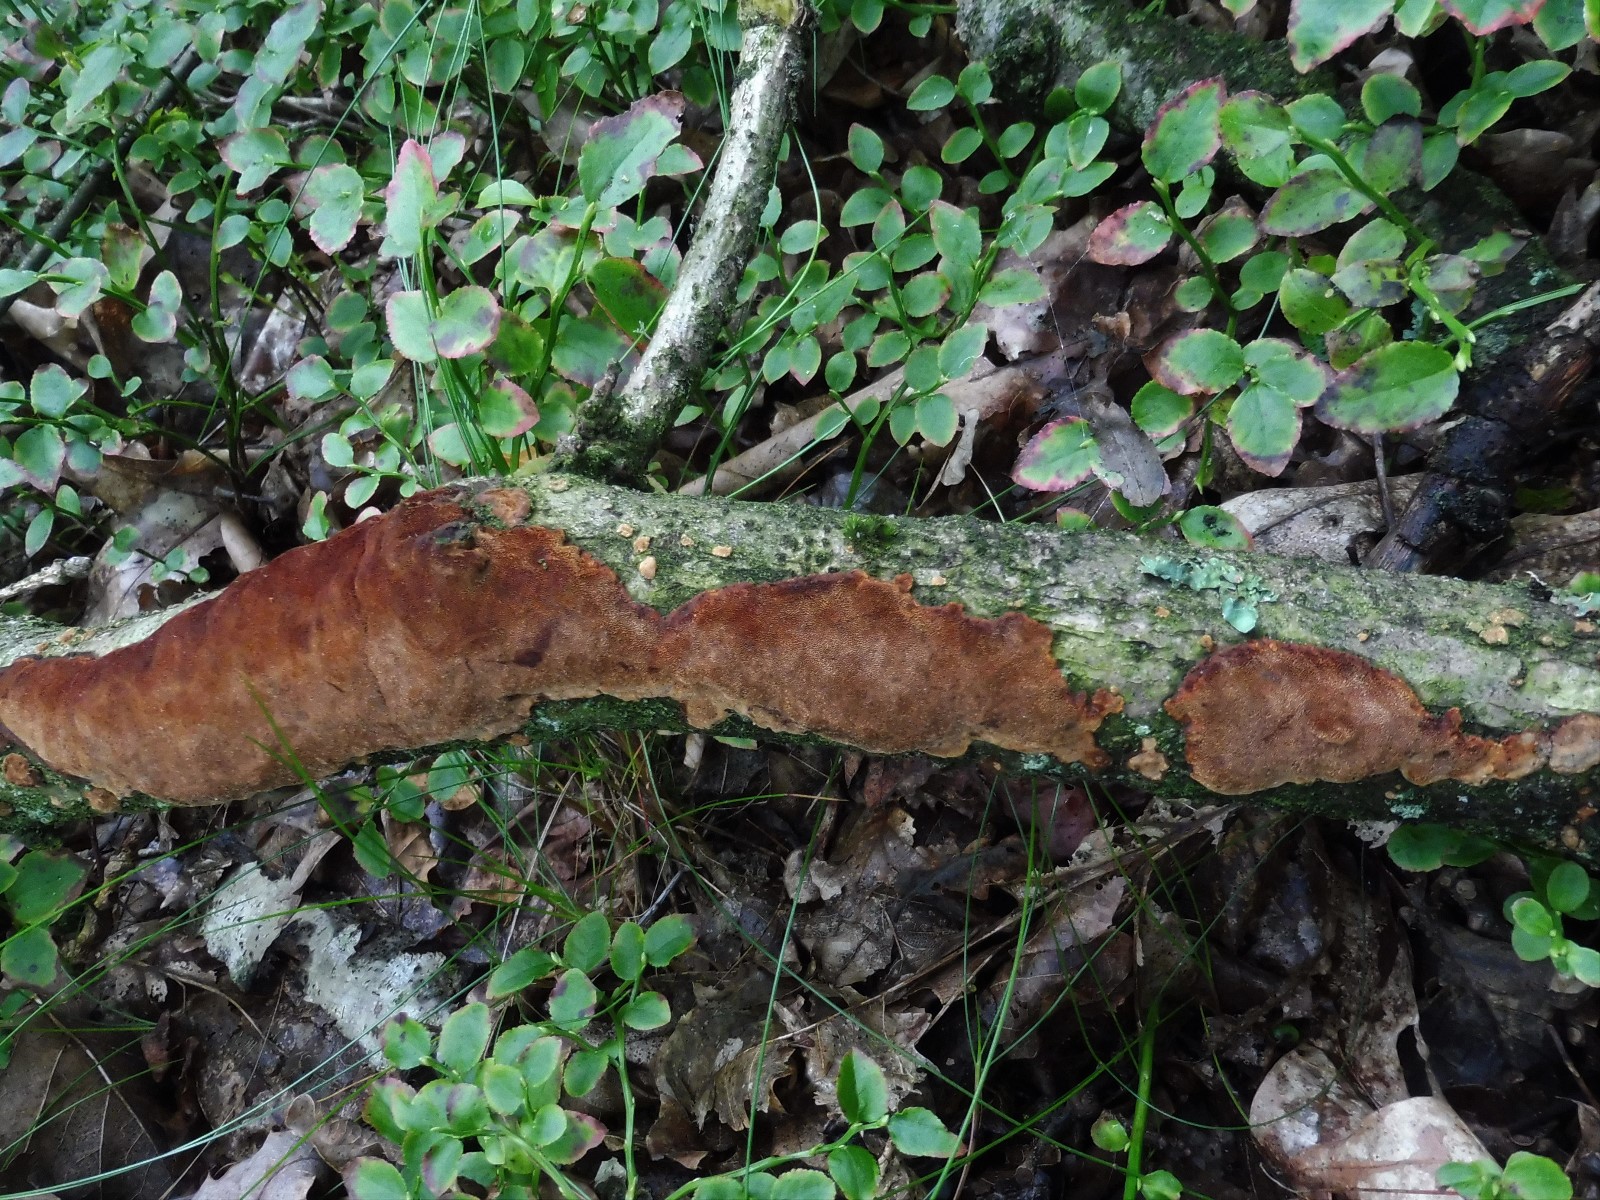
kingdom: Fungi
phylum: Basidiomycota
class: Agaricomycetes
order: Hymenochaetales
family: Hymenochaetaceae
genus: Fuscoporia
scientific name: Fuscoporia ferrea
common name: skorpe-ildporesvamp
